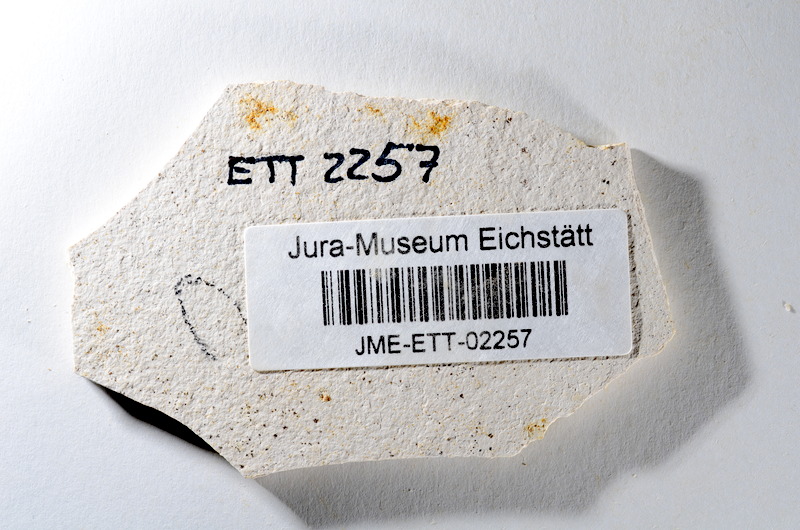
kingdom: Animalia
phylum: Chordata
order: Salmoniformes
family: Orthogonikleithridae
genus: Orthogonikleithrus
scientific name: Orthogonikleithrus hoelli
